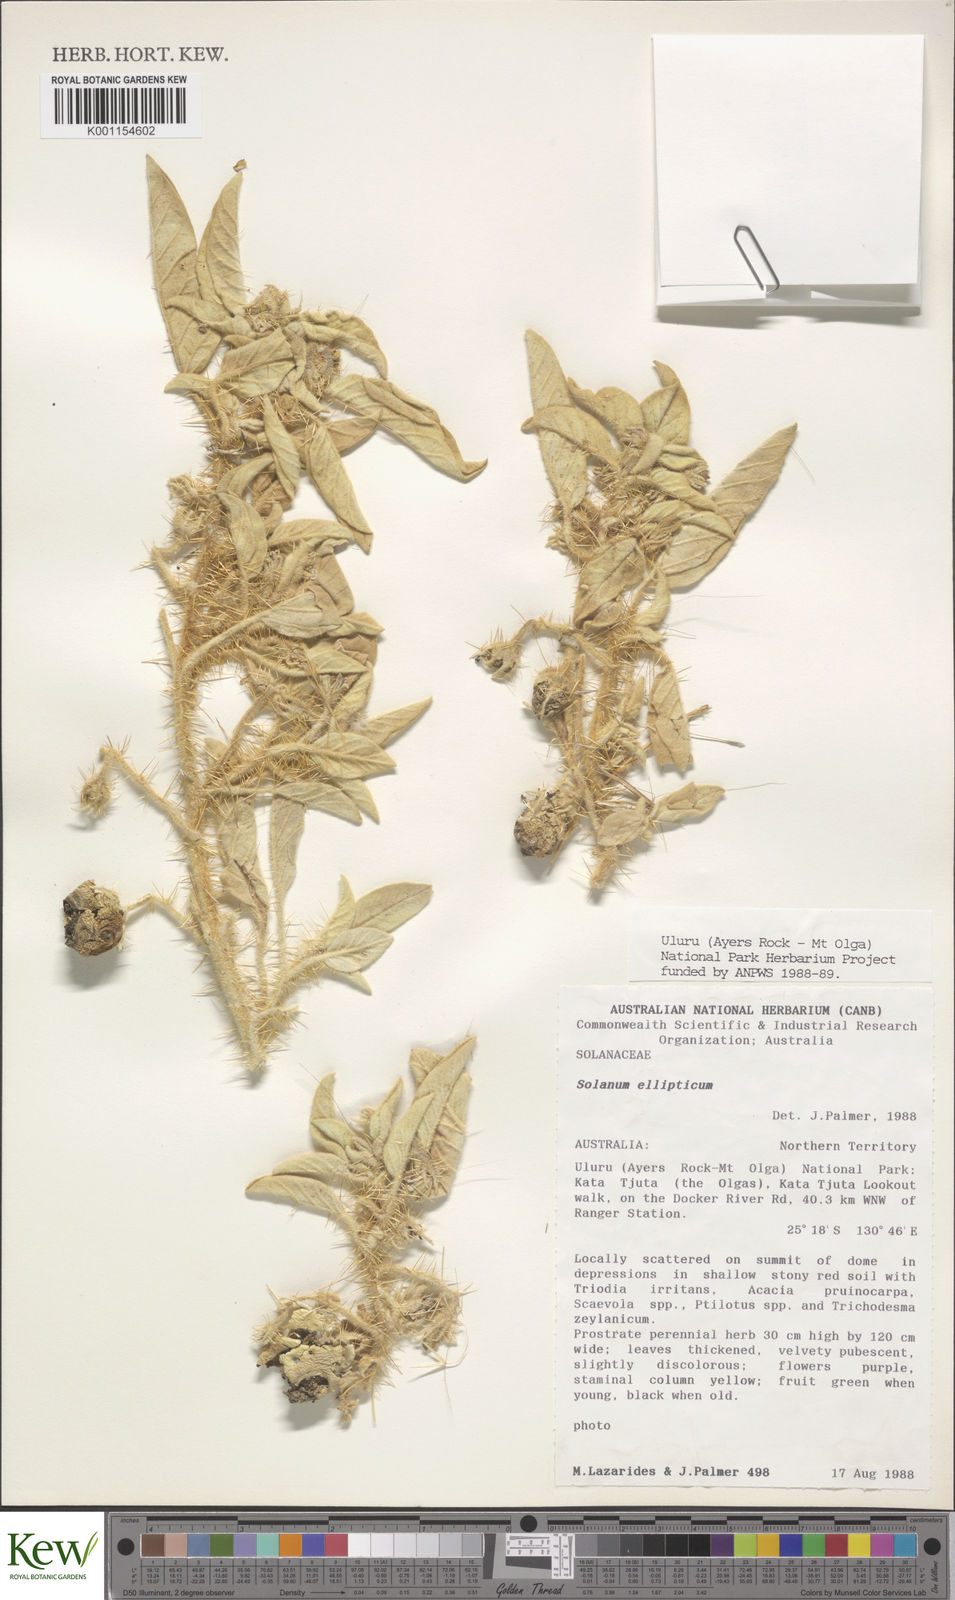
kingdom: Plantae
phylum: Tracheophyta
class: Magnoliopsida
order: Solanales
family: Solanaceae
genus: Solanum
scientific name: Solanum ellipticum
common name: Potato-bush
